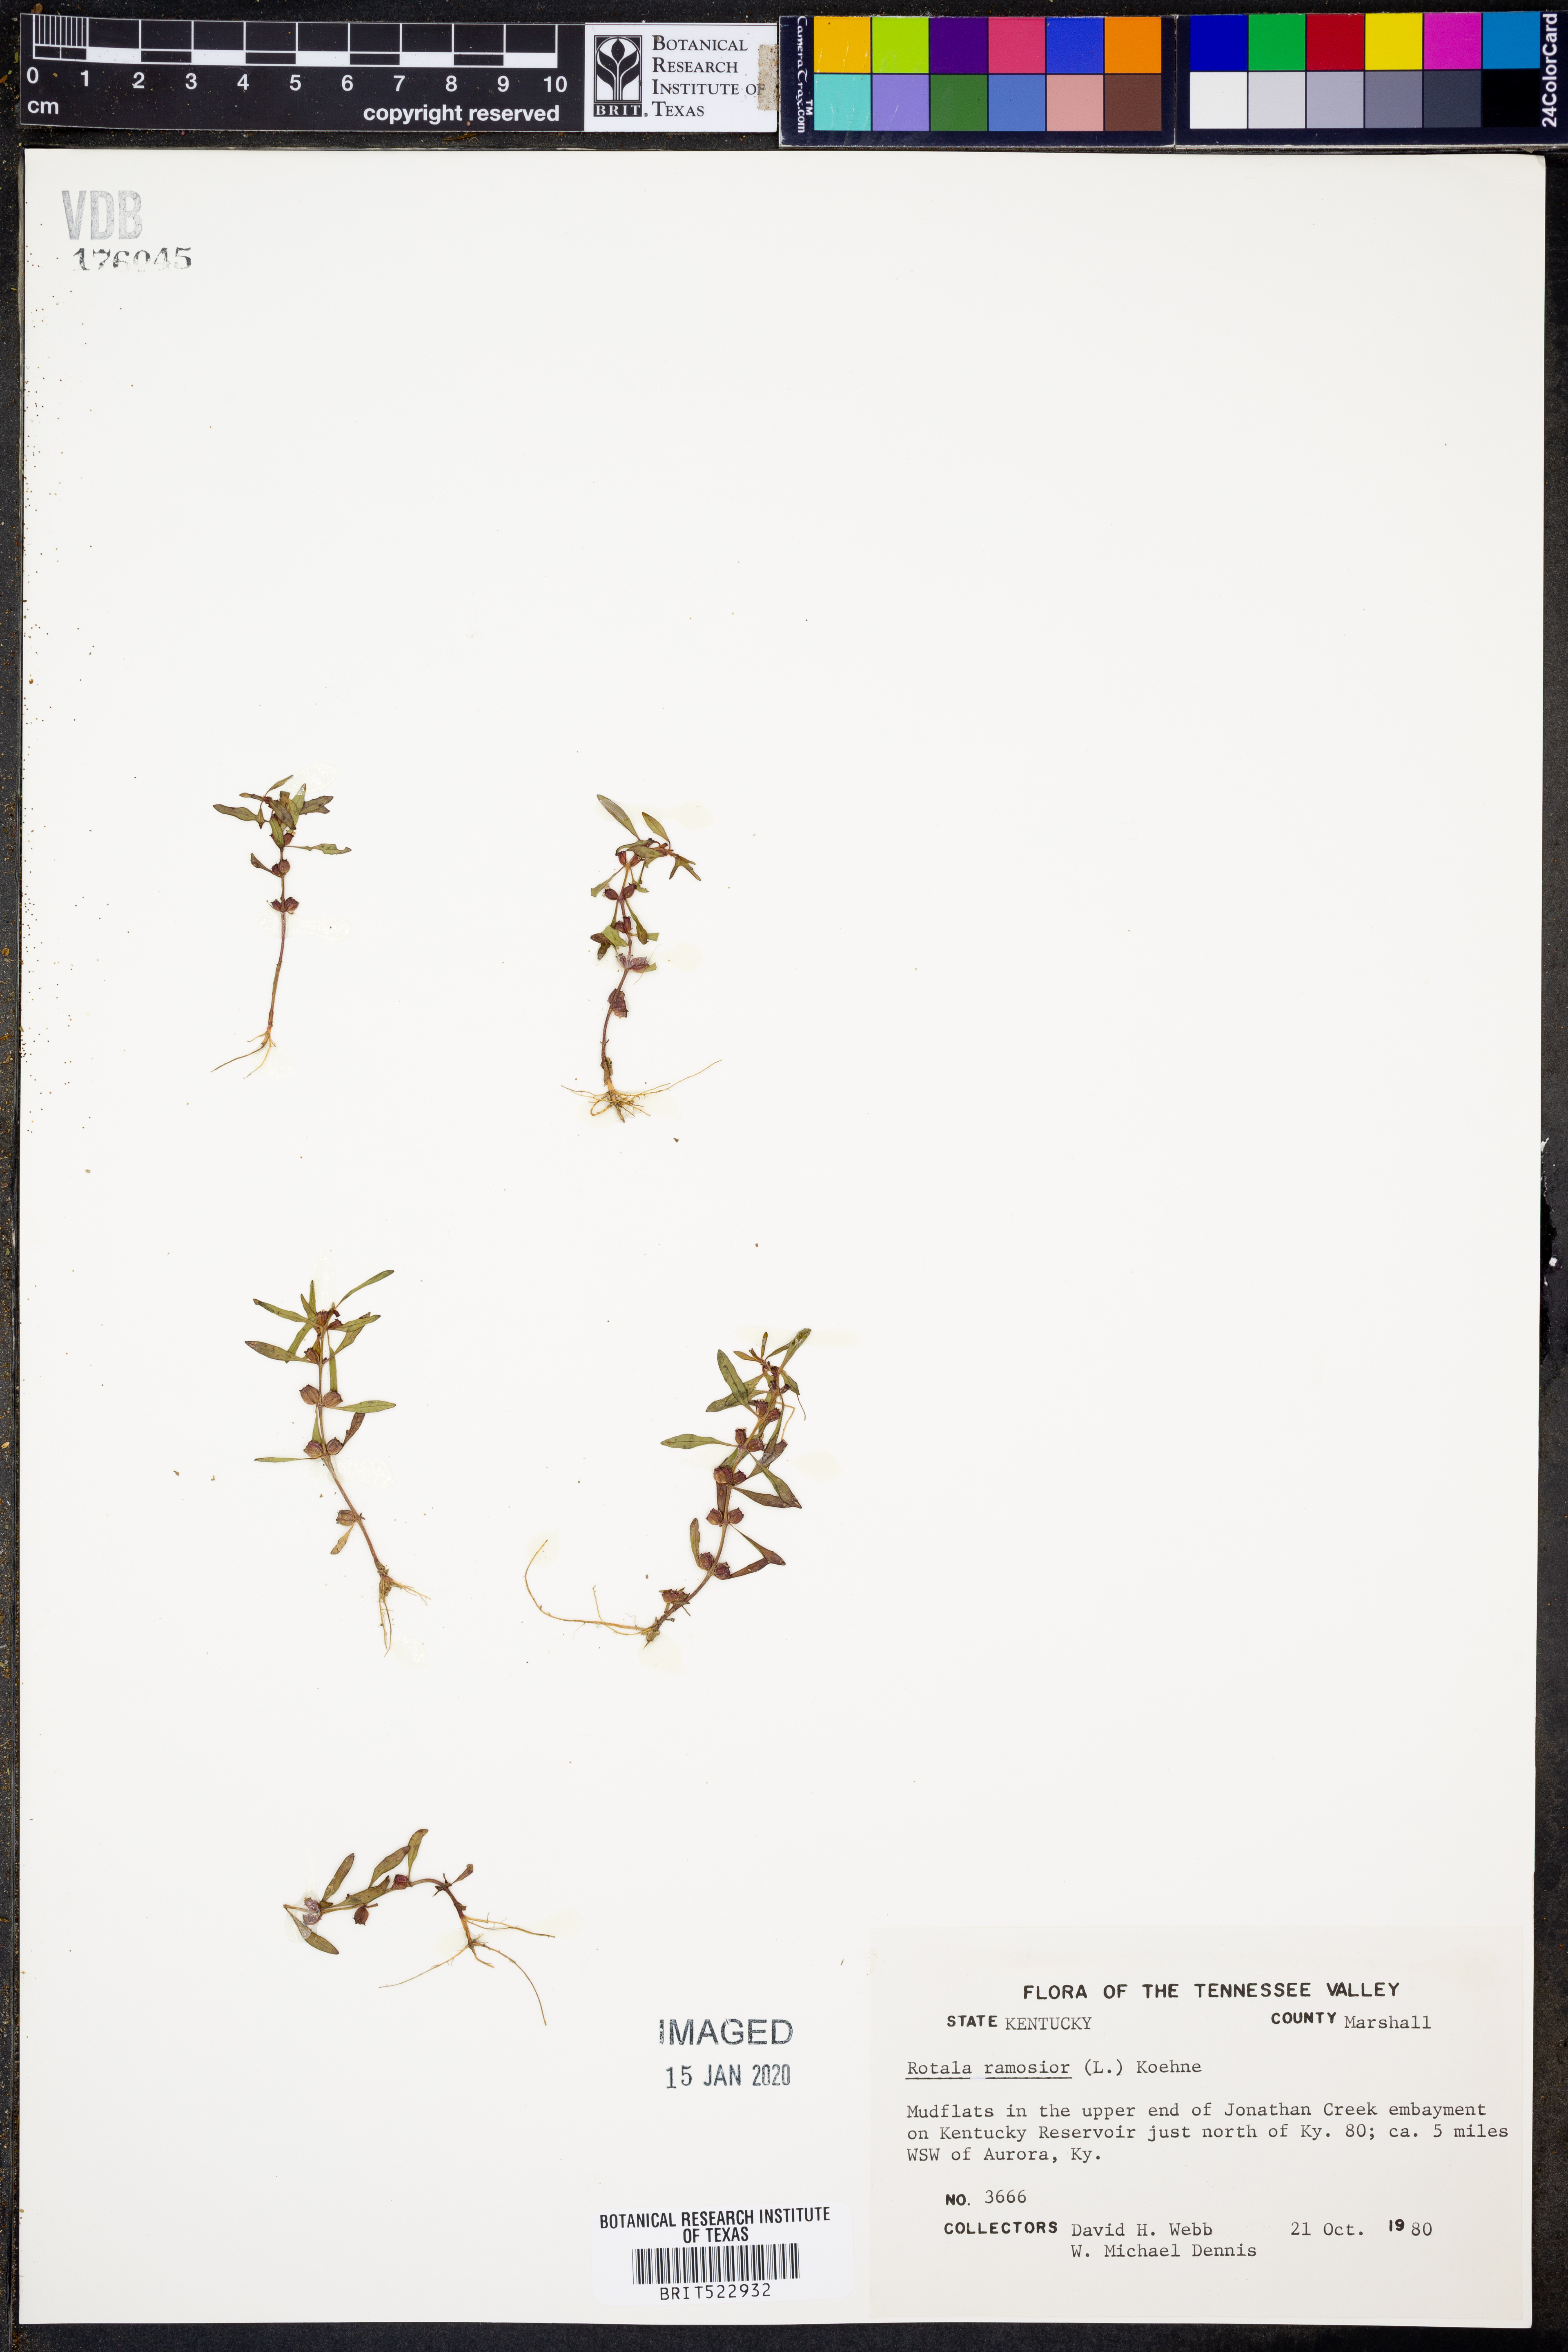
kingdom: Plantae
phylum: Tracheophyta
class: Magnoliopsida
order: Myrtales
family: Lythraceae
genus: Rotala
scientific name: Rotala ramosior
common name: Lowland rotala
